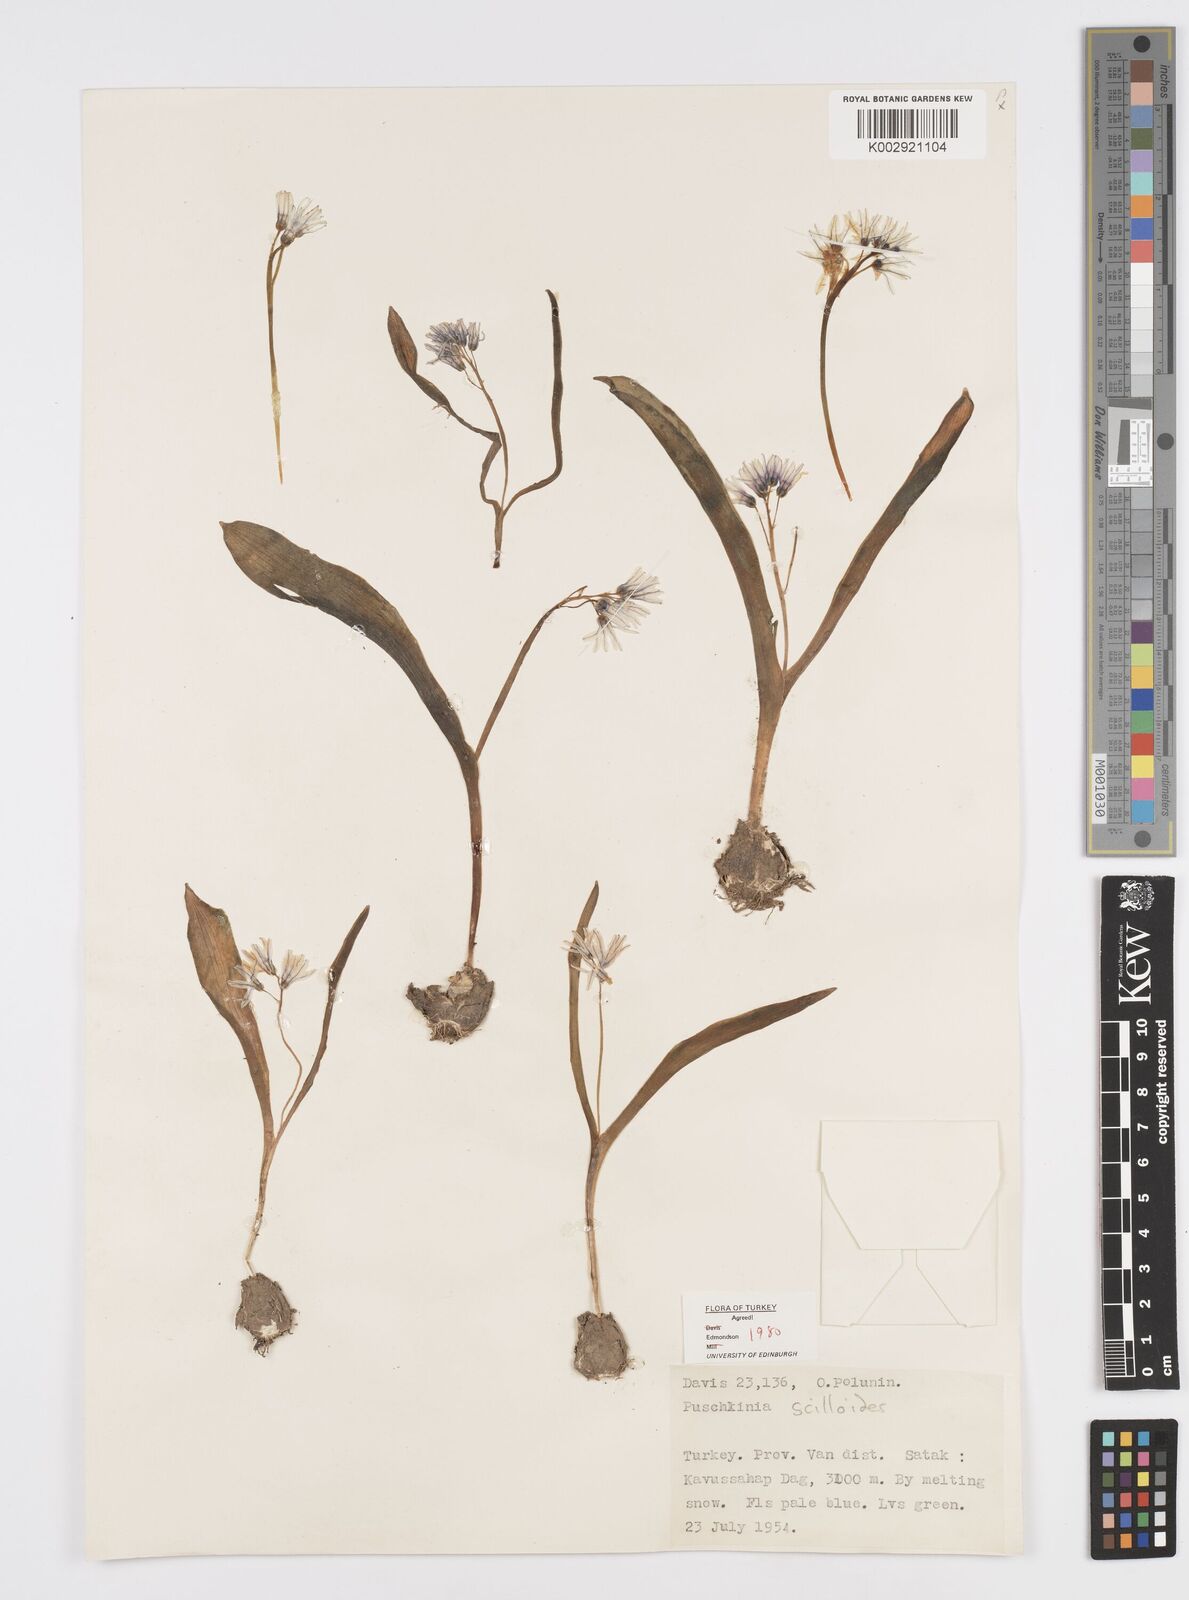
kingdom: Plantae
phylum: Tracheophyta
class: Liliopsida
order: Asparagales
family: Asparagaceae
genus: Puschkinia
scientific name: Puschkinia scilloides
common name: Striped squill
